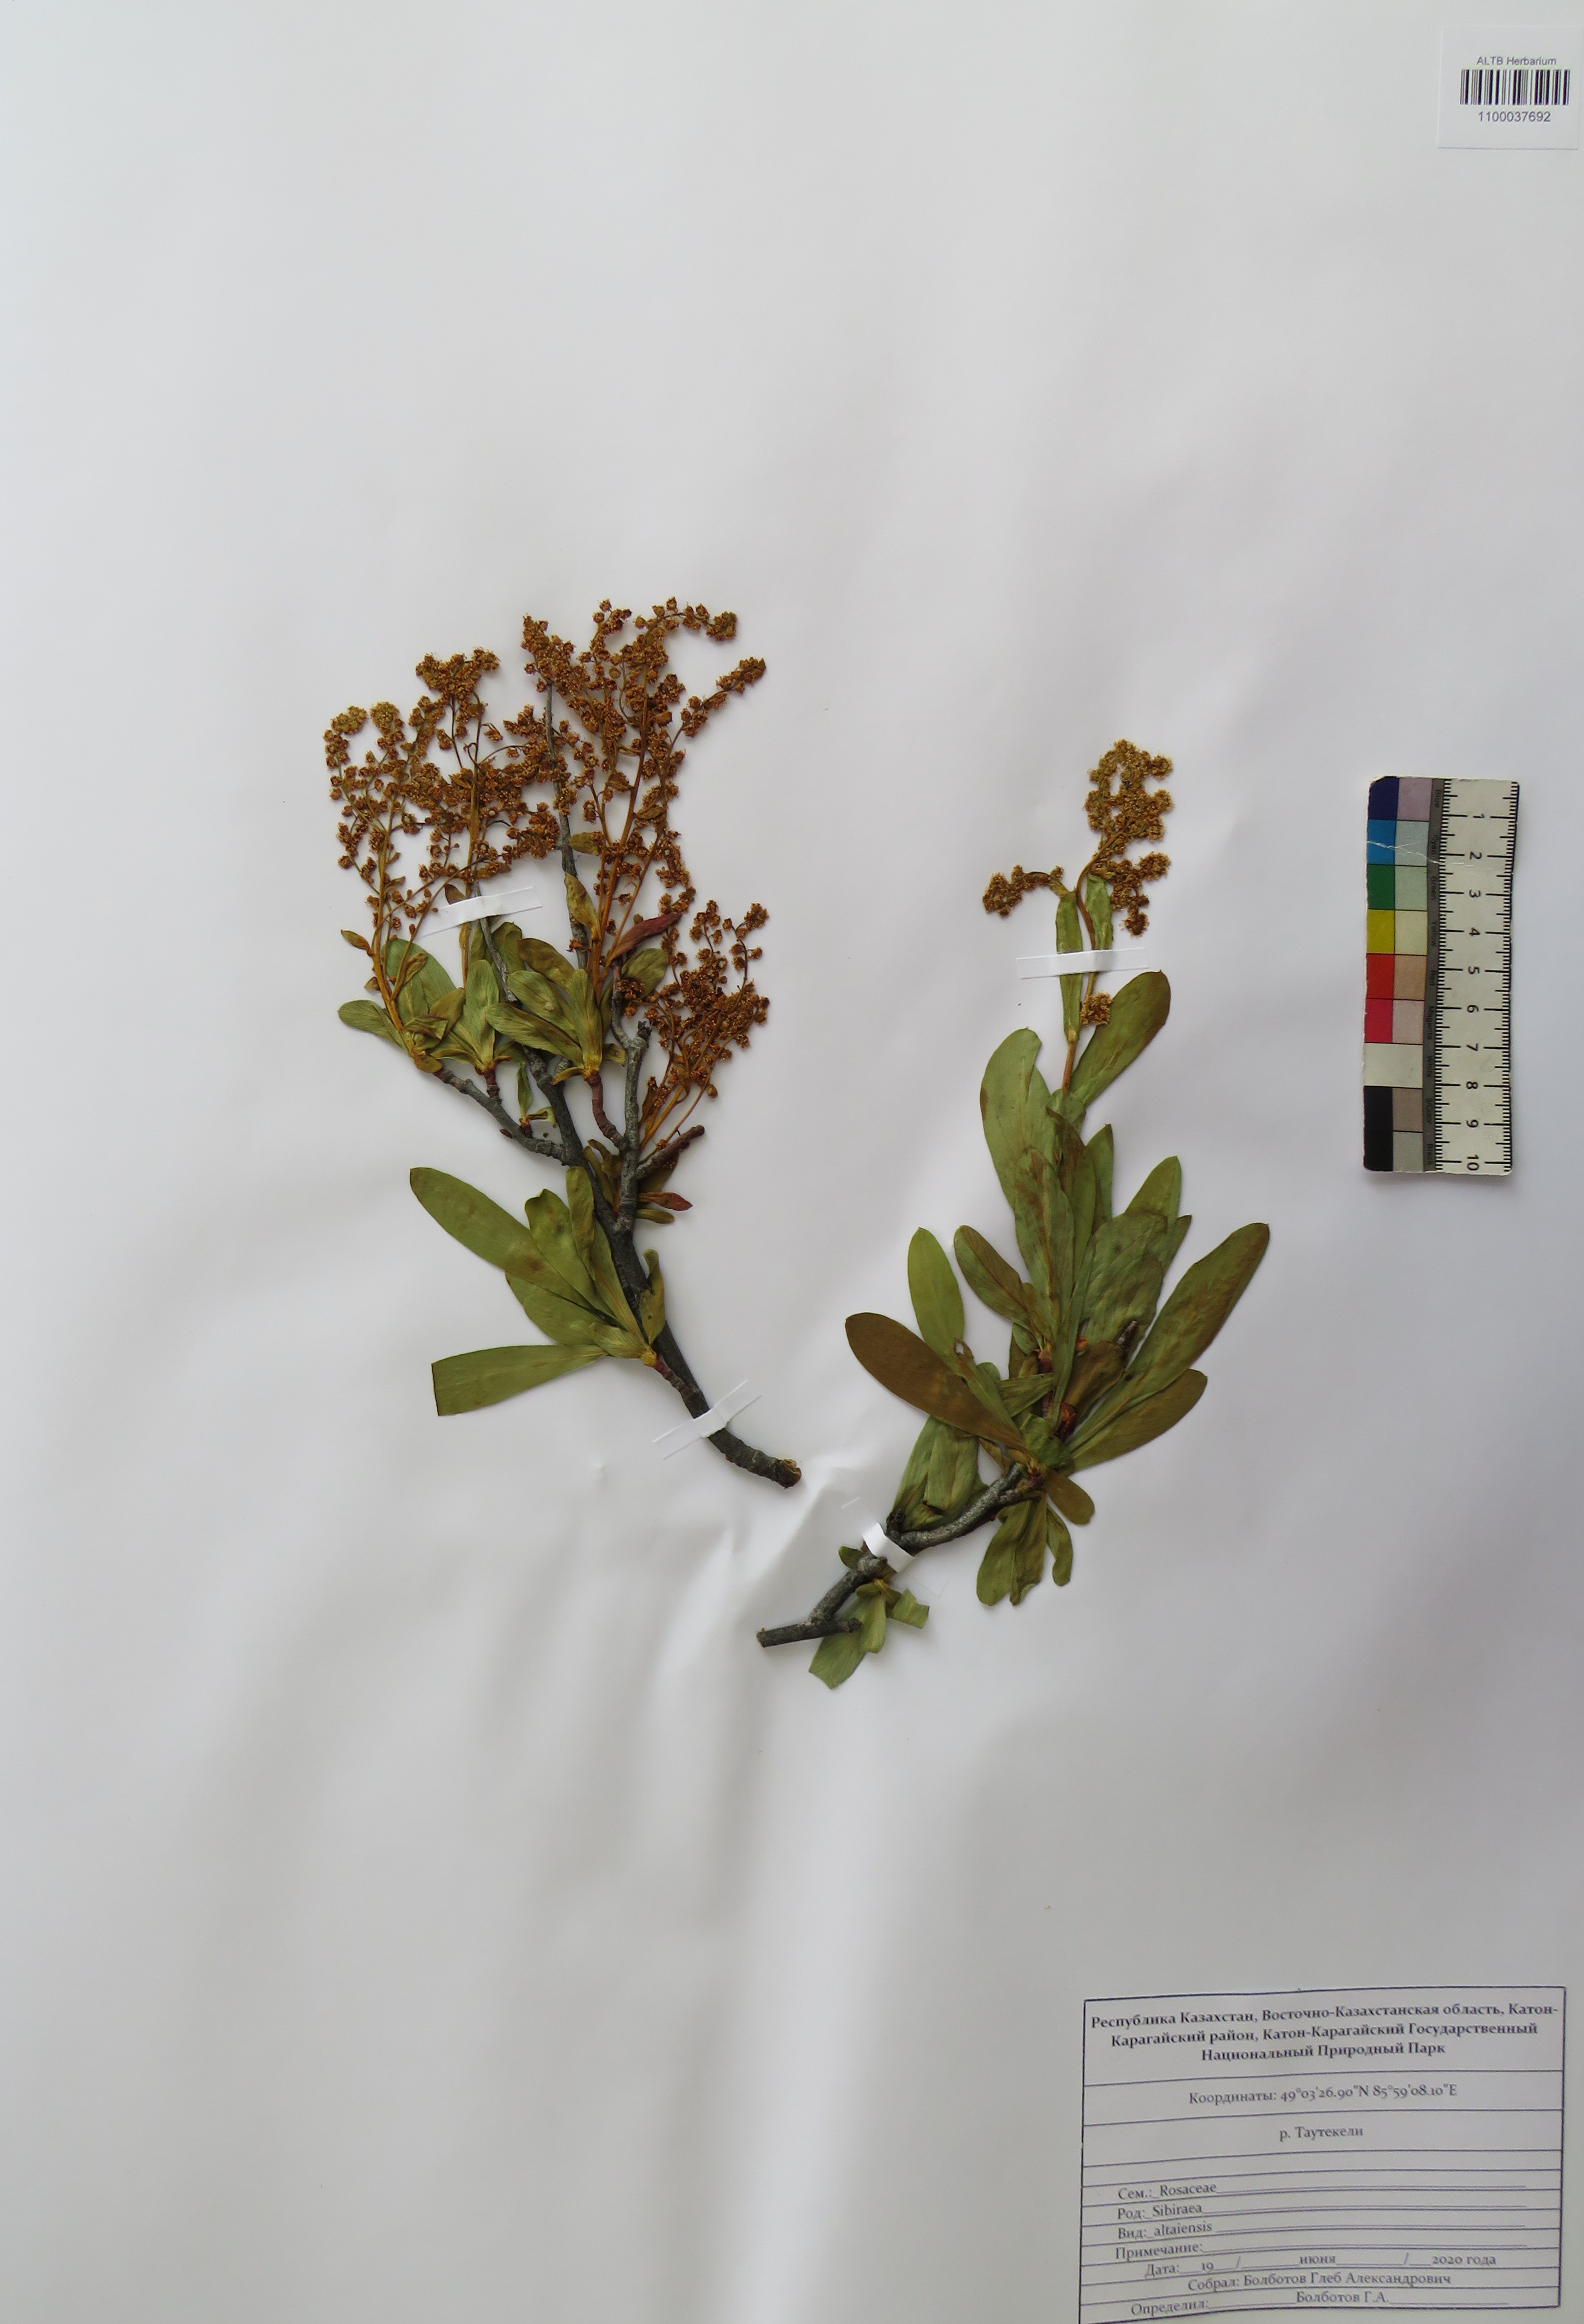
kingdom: Plantae
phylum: Tracheophyta
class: Magnoliopsida
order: Rosales
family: Rosaceae
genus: Sibiraea
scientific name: Sibiraea laevigata
